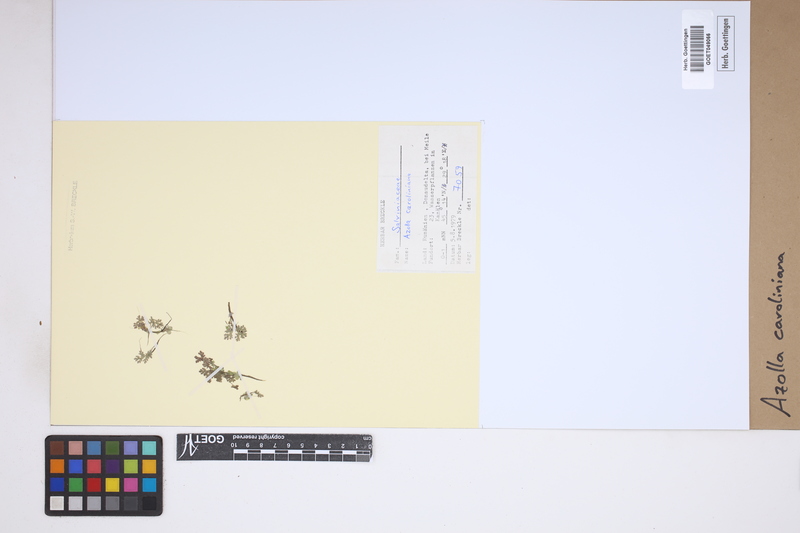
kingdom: Plantae
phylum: Tracheophyta
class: Polypodiopsida
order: Salviniales
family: Salviniaceae
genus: Azolla
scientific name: Azolla caroliniana
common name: Carolina mosquitofern
